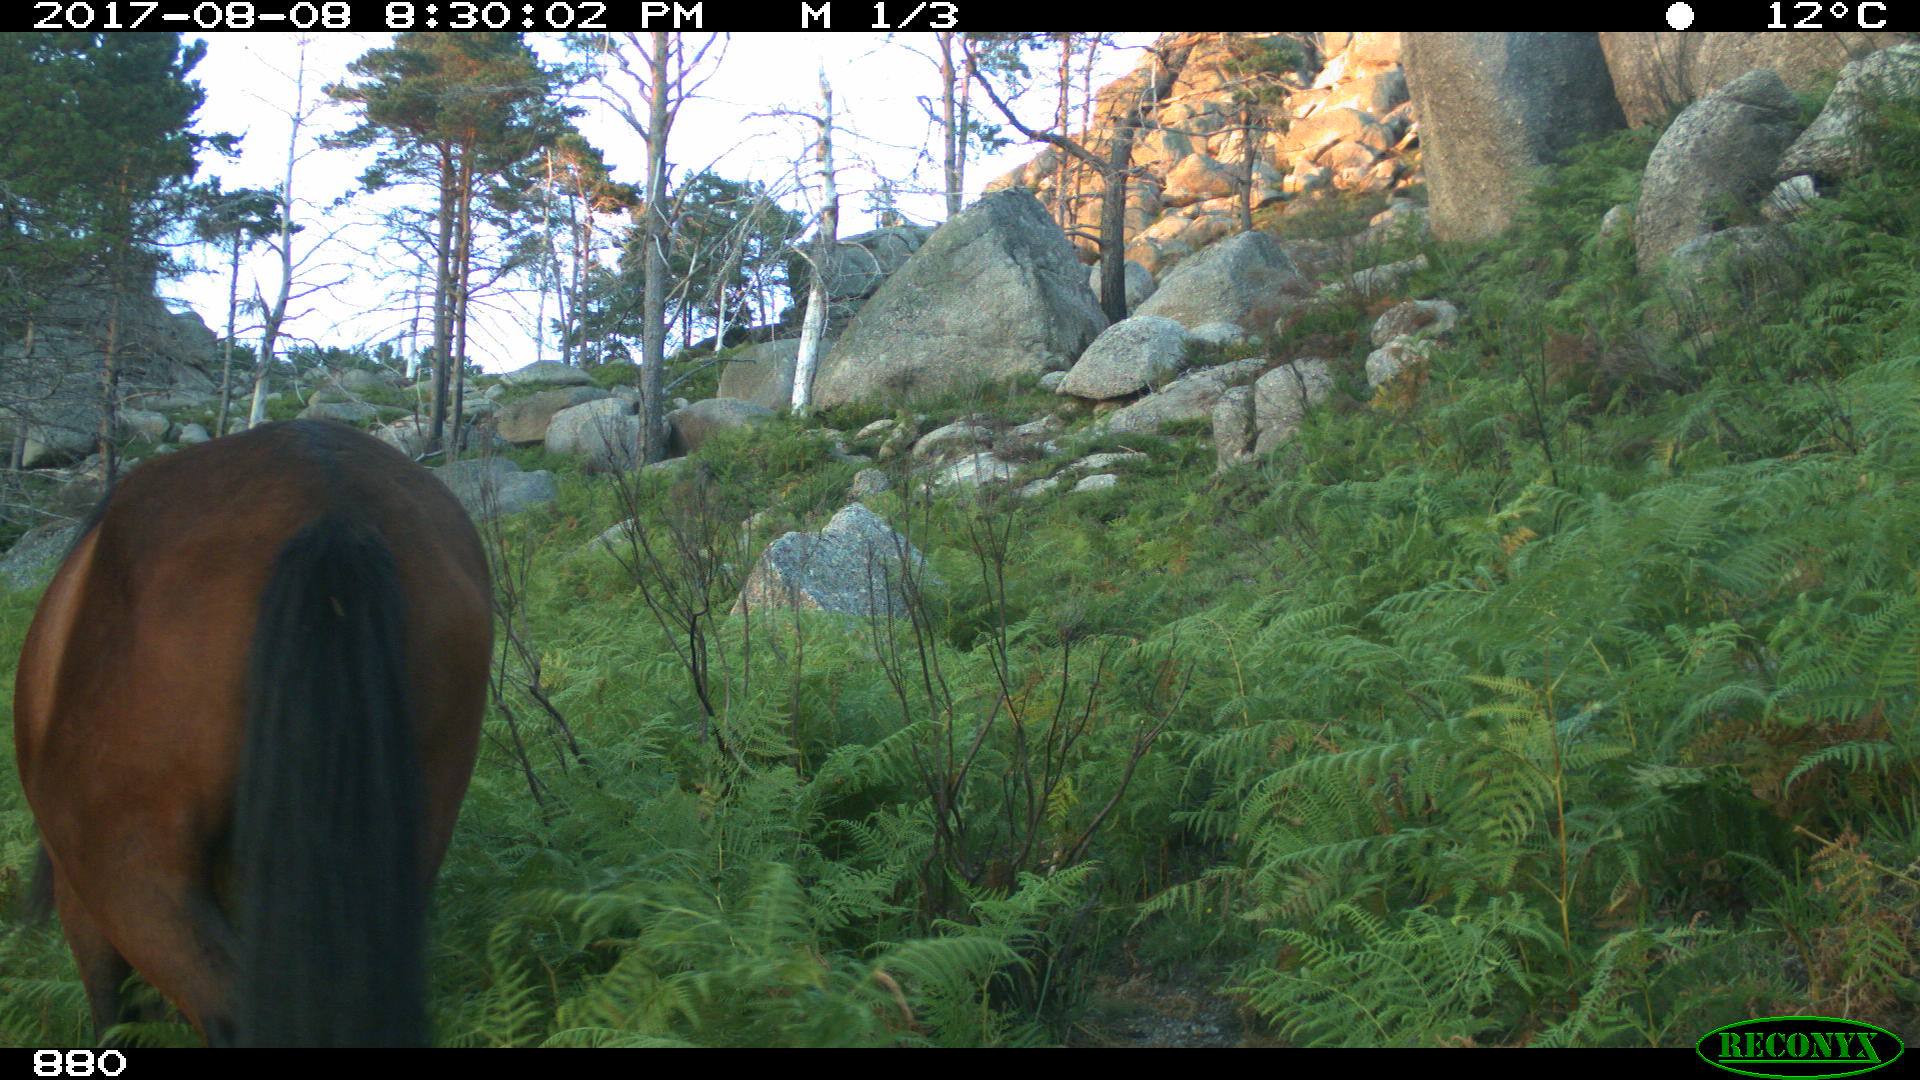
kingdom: Animalia
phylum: Chordata
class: Mammalia
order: Perissodactyla
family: Equidae
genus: Equus
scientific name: Equus caballus
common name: Horse
